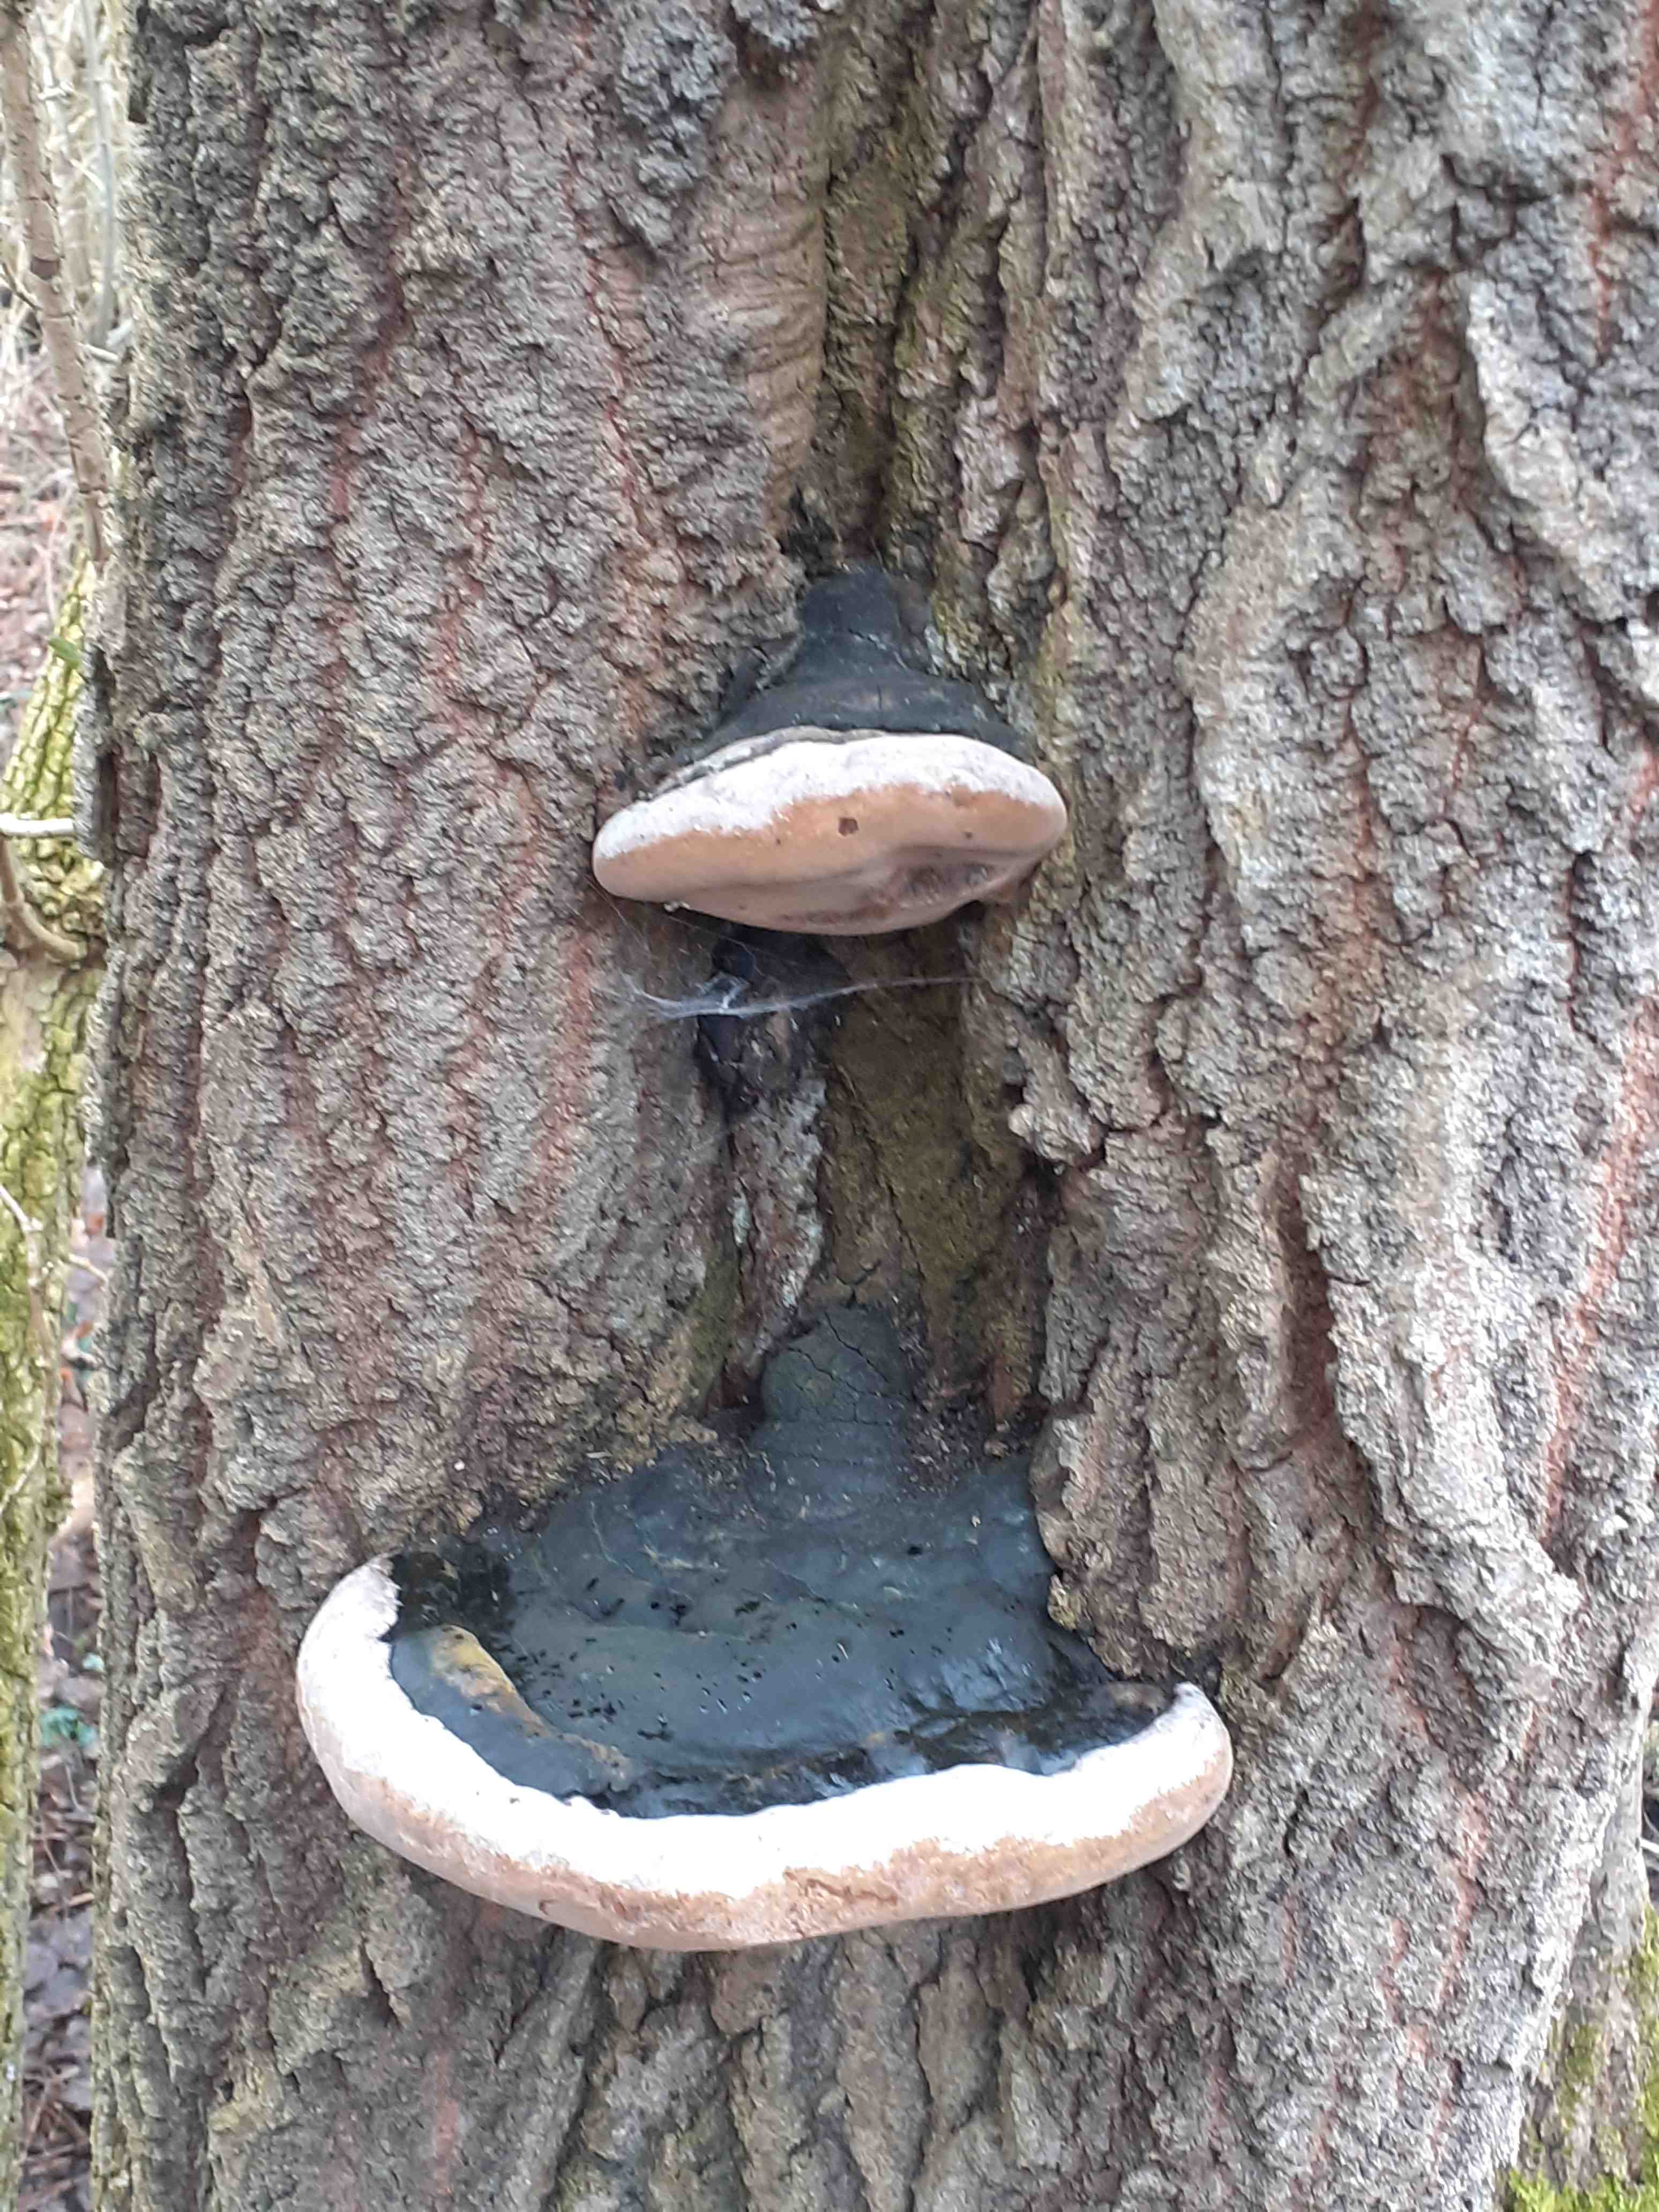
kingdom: Fungi
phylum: Basidiomycota
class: Agaricomycetes
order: Hymenochaetales
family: Hymenochaetaceae
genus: Phellinus
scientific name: Phellinus populicola
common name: poppel-ildporesvamp
